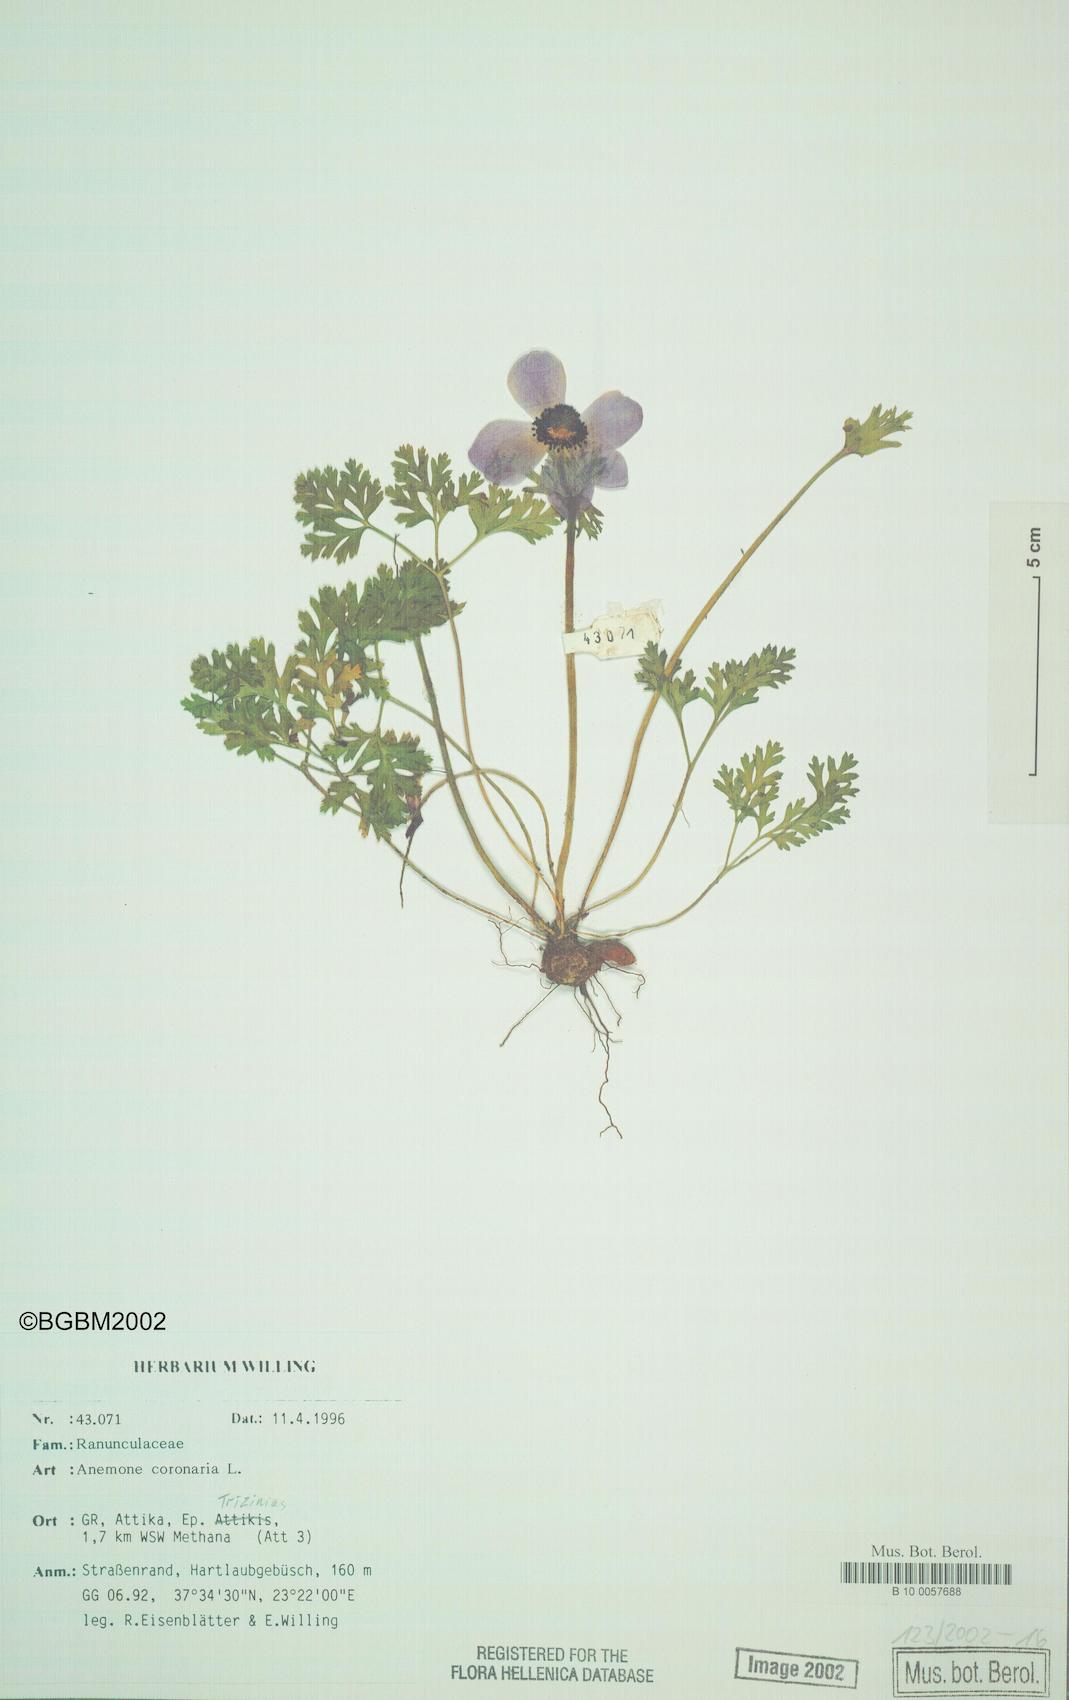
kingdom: Plantae
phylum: Tracheophyta
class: Magnoliopsida
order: Ranunculales
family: Ranunculaceae
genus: Anemone
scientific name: Anemone coronaria
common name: Poppy anemone
